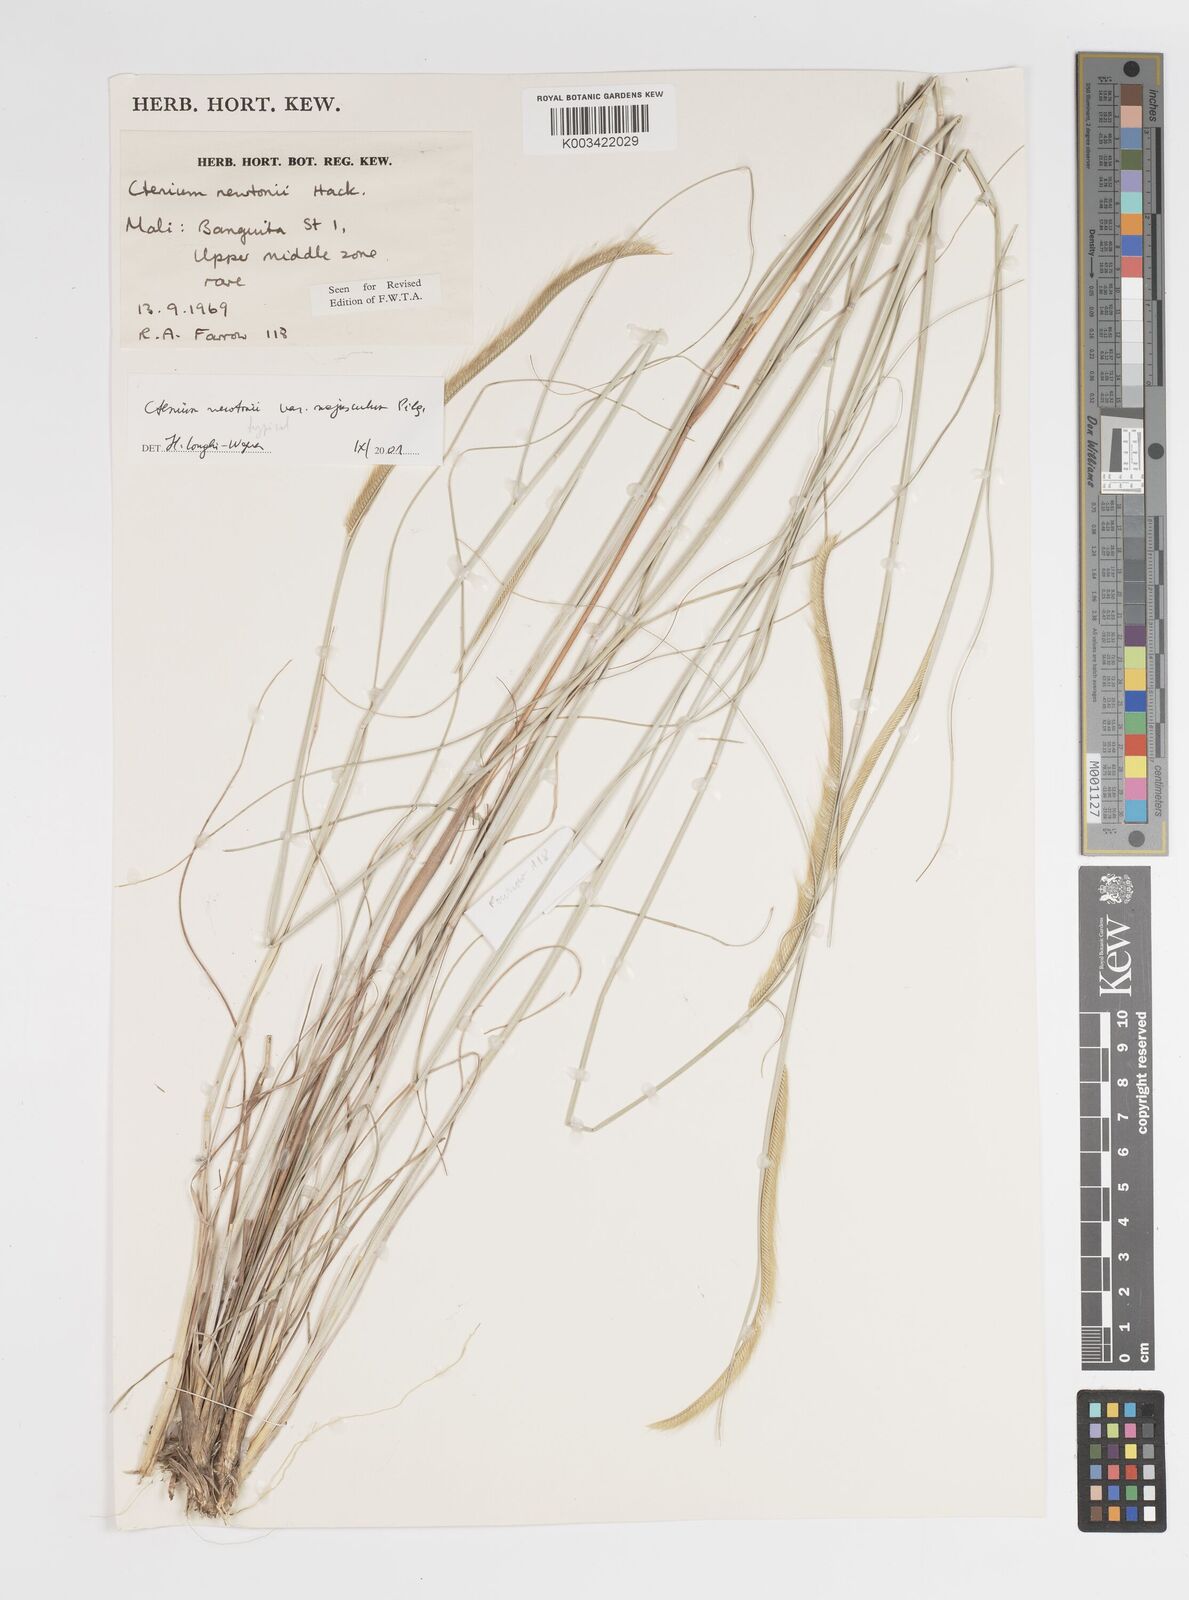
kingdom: Plantae
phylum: Tracheophyta
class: Liliopsida
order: Poales
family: Poaceae
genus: Ctenium
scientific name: Ctenium newtonii
